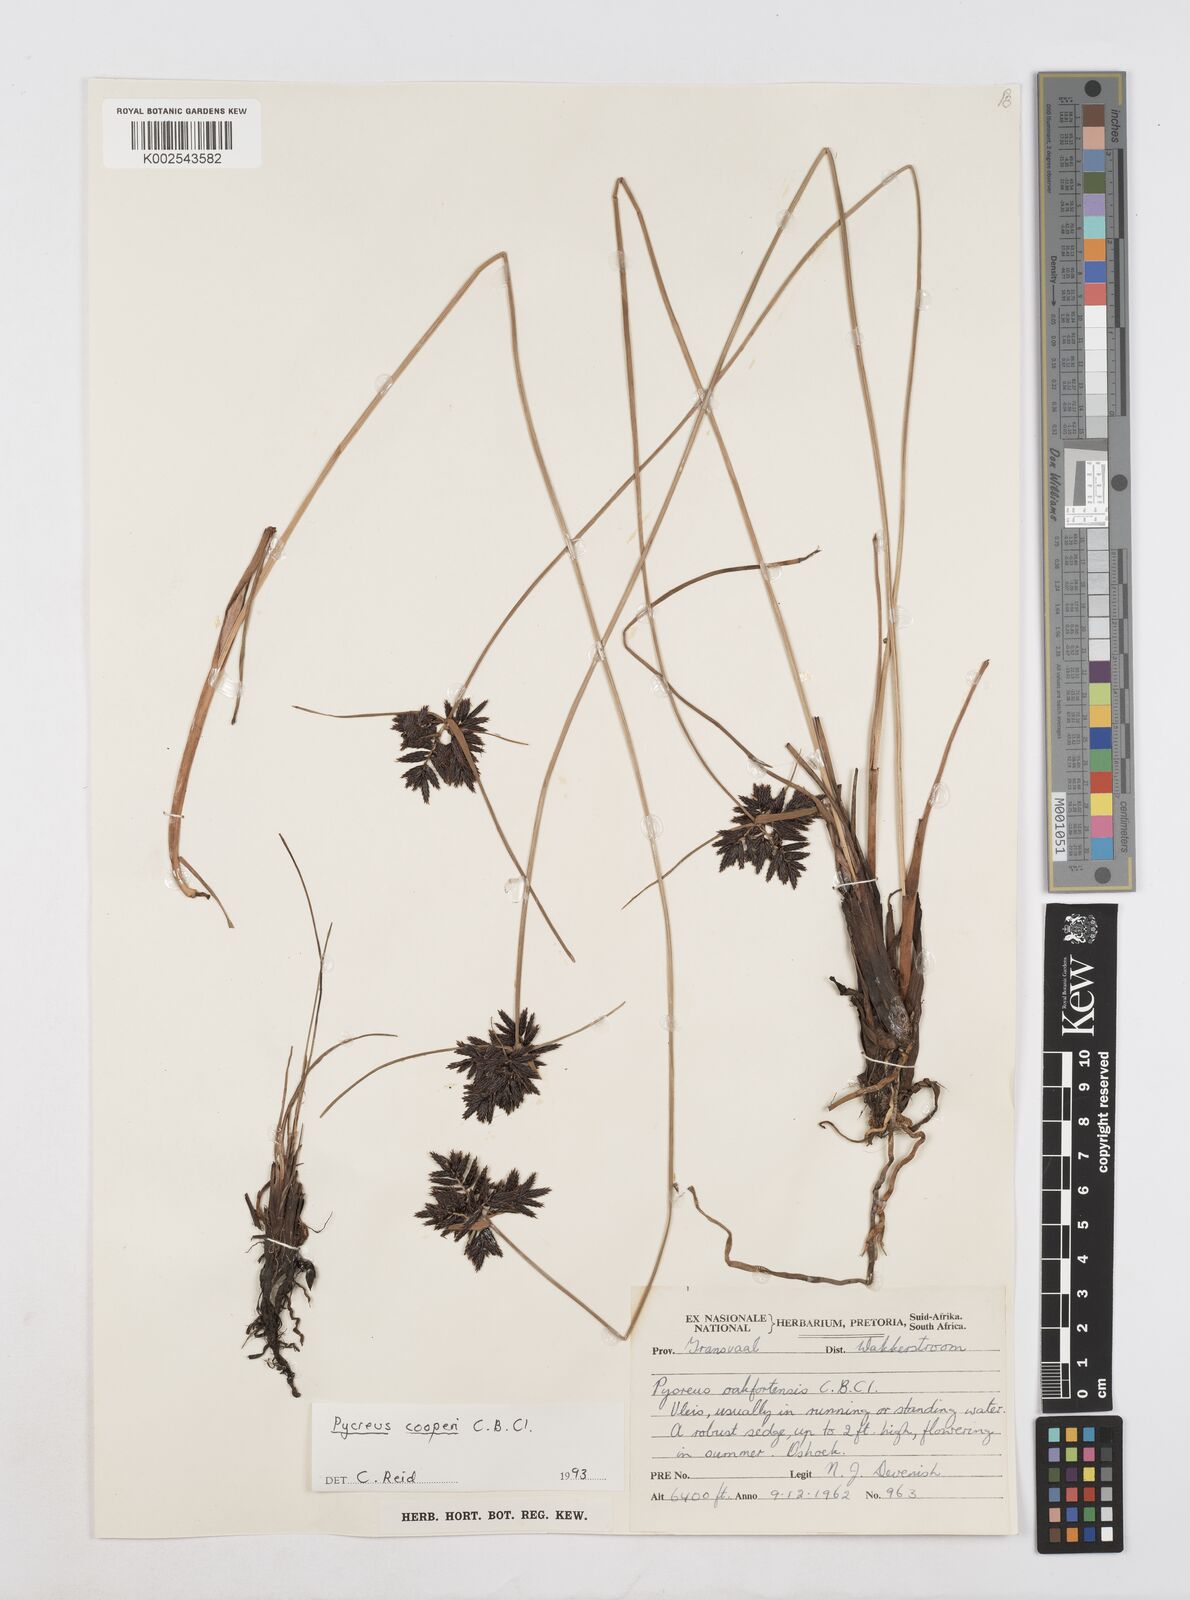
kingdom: Plantae
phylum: Tracheophyta
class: Liliopsida
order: Poales
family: Cyperaceae
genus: Cyperus
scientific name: Cyperus
